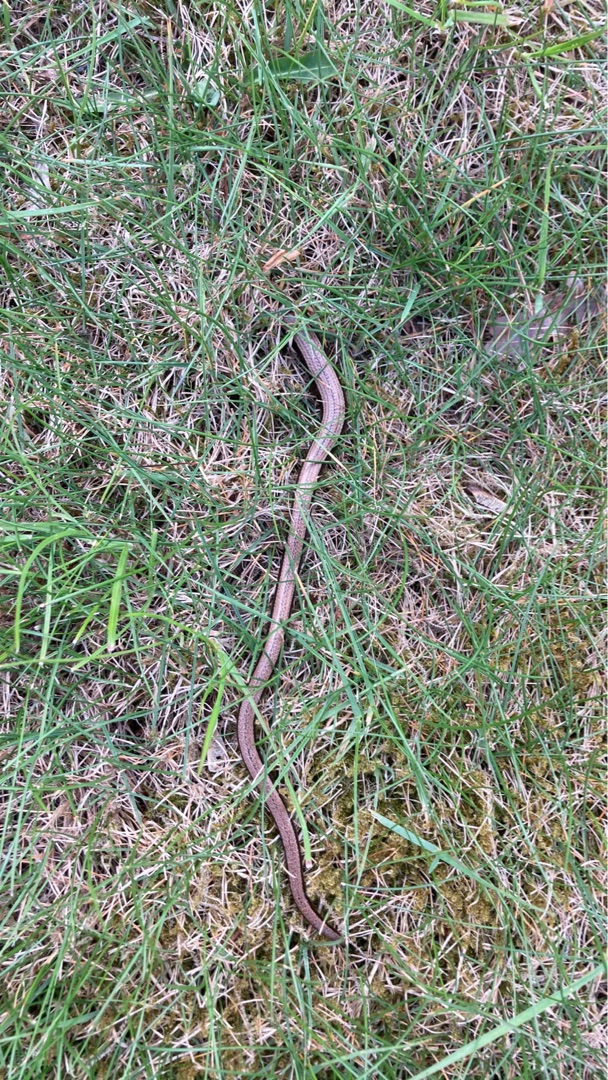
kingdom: Animalia
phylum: Chordata
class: Squamata
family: Anguidae
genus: Anguis
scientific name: Anguis fragilis
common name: Stålorm
